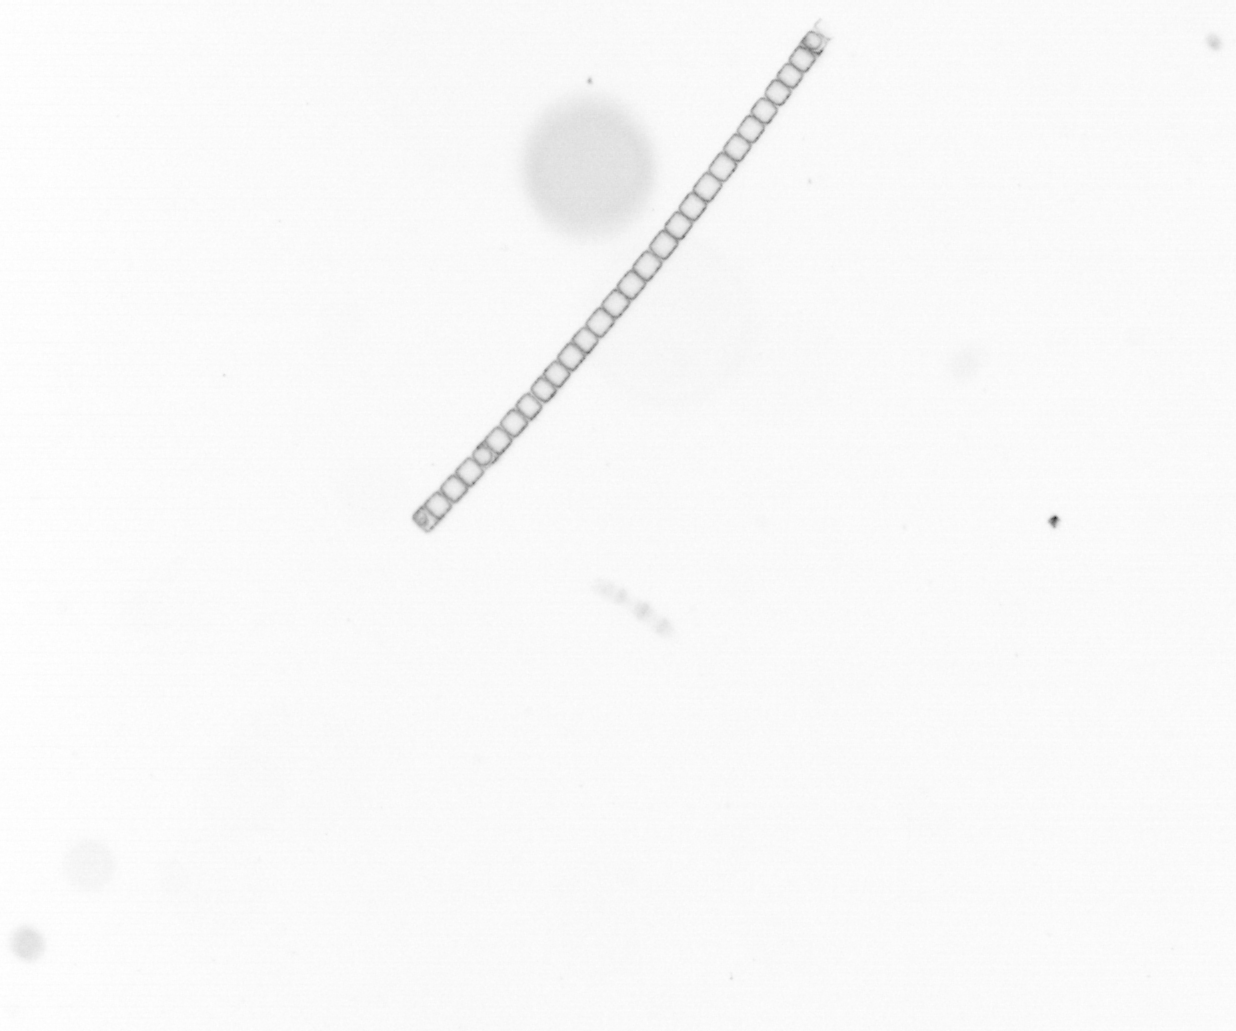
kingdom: Chromista
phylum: Ochrophyta
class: Bacillariophyceae
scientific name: Bacillariophyceae
